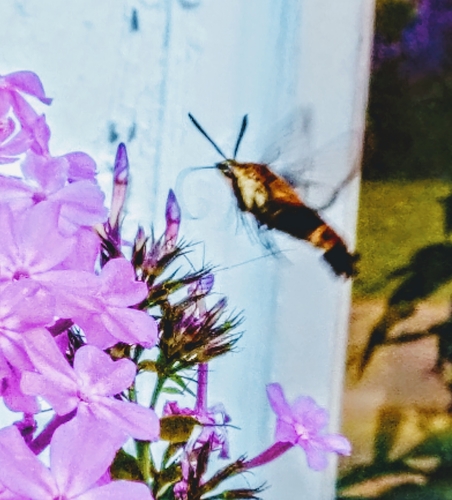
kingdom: Animalia
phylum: Arthropoda
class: Insecta
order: Lepidoptera
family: Sphingidae
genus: Hemaris
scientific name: Hemaris diffinis
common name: Bumblebee moth
